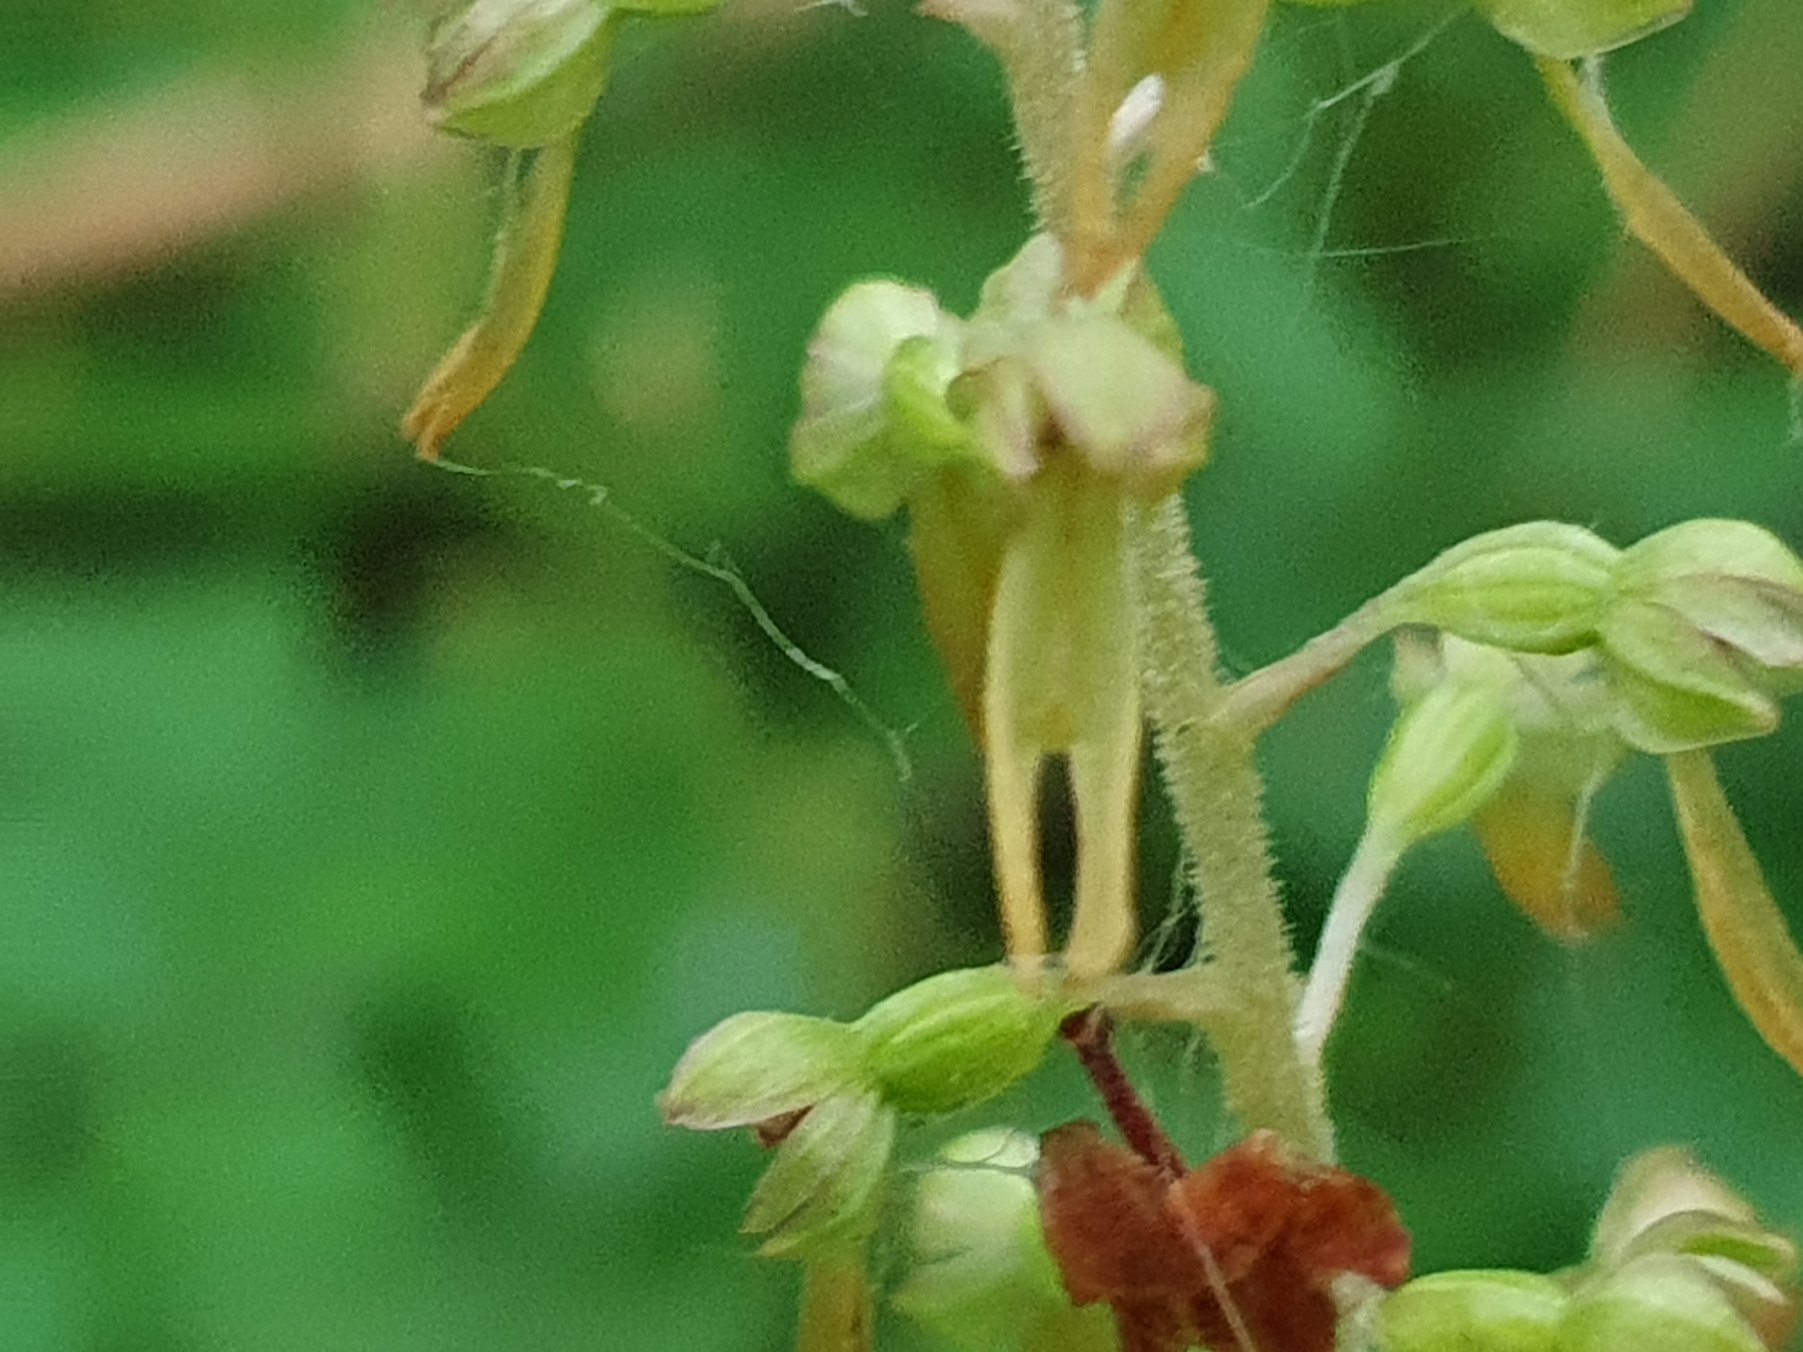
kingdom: Plantae
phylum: Tracheophyta
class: Liliopsida
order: Asparagales
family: Orchidaceae
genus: Neottia
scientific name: Neottia ovata
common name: Ægbladet fliglæbe
